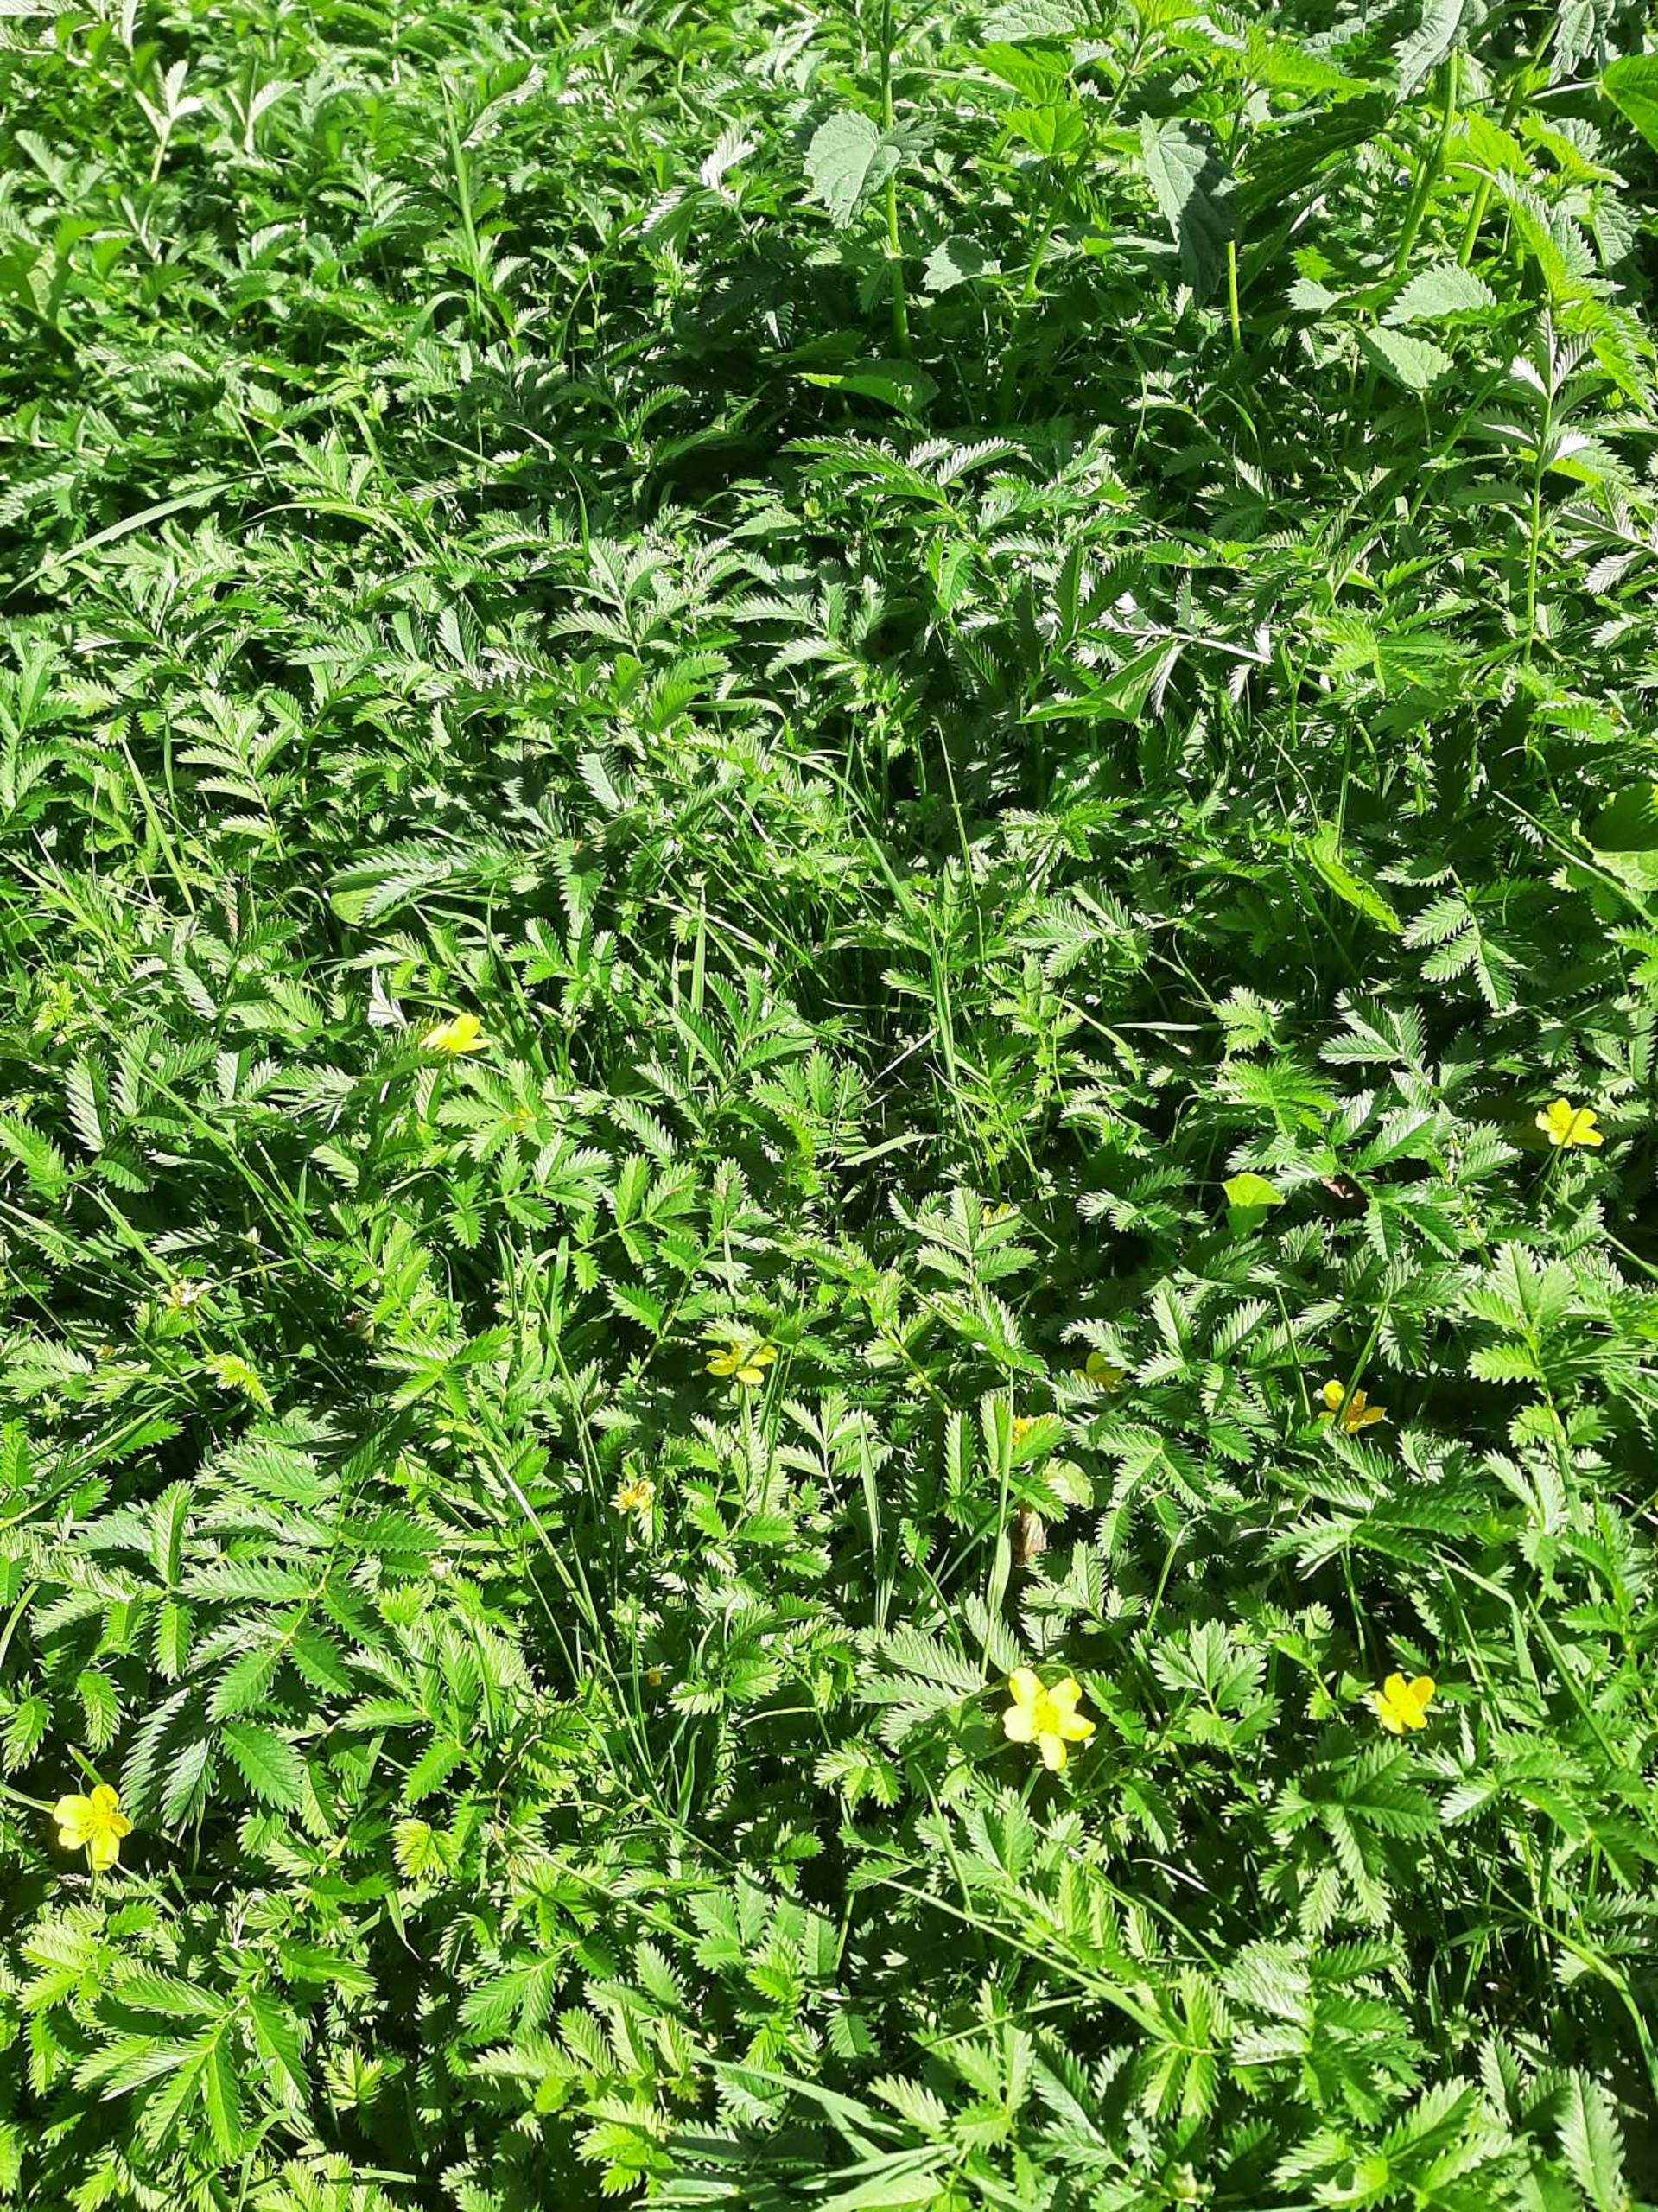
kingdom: Plantae
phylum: Tracheophyta
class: Magnoliopsida
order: Rosales
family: Rosaceae
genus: Argentina
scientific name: Argentina anserina
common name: Gåsepotentil
